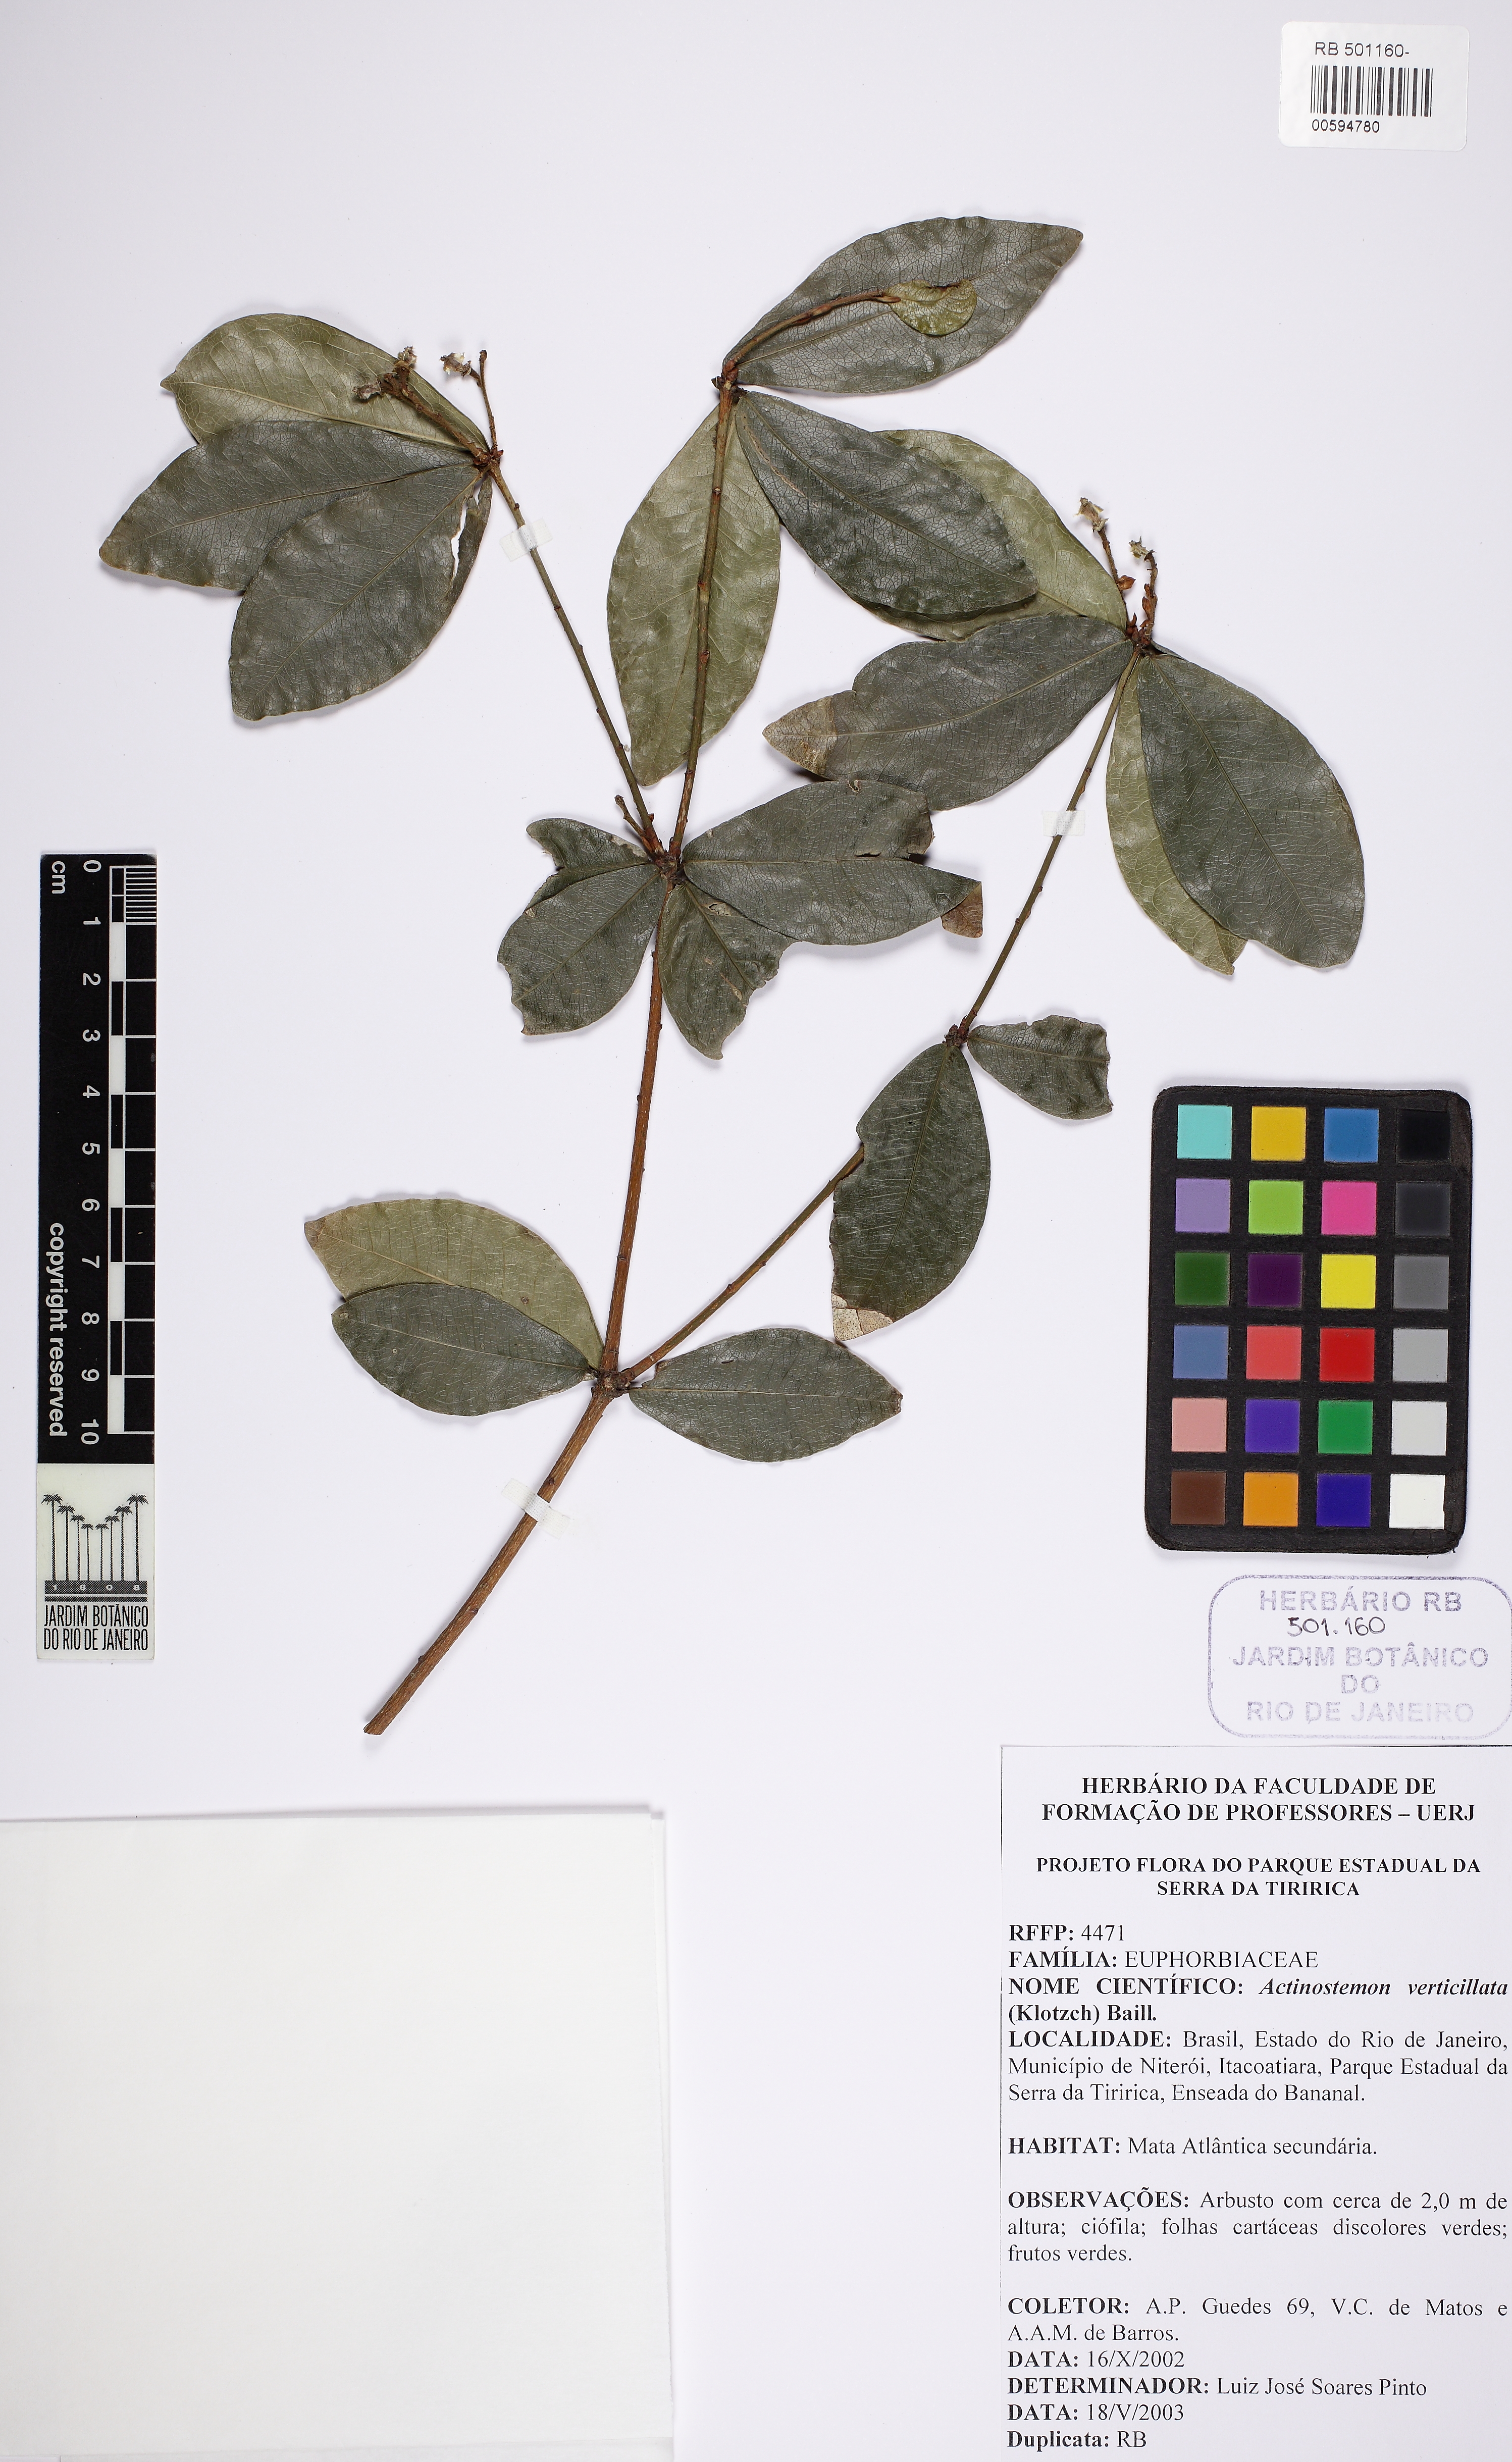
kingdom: Plantae
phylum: Tracheophyta
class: Magnoliopsida
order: Malpighiales
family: Euphorbiaceae
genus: Actinostemon
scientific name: Actinostemon verticillatus
